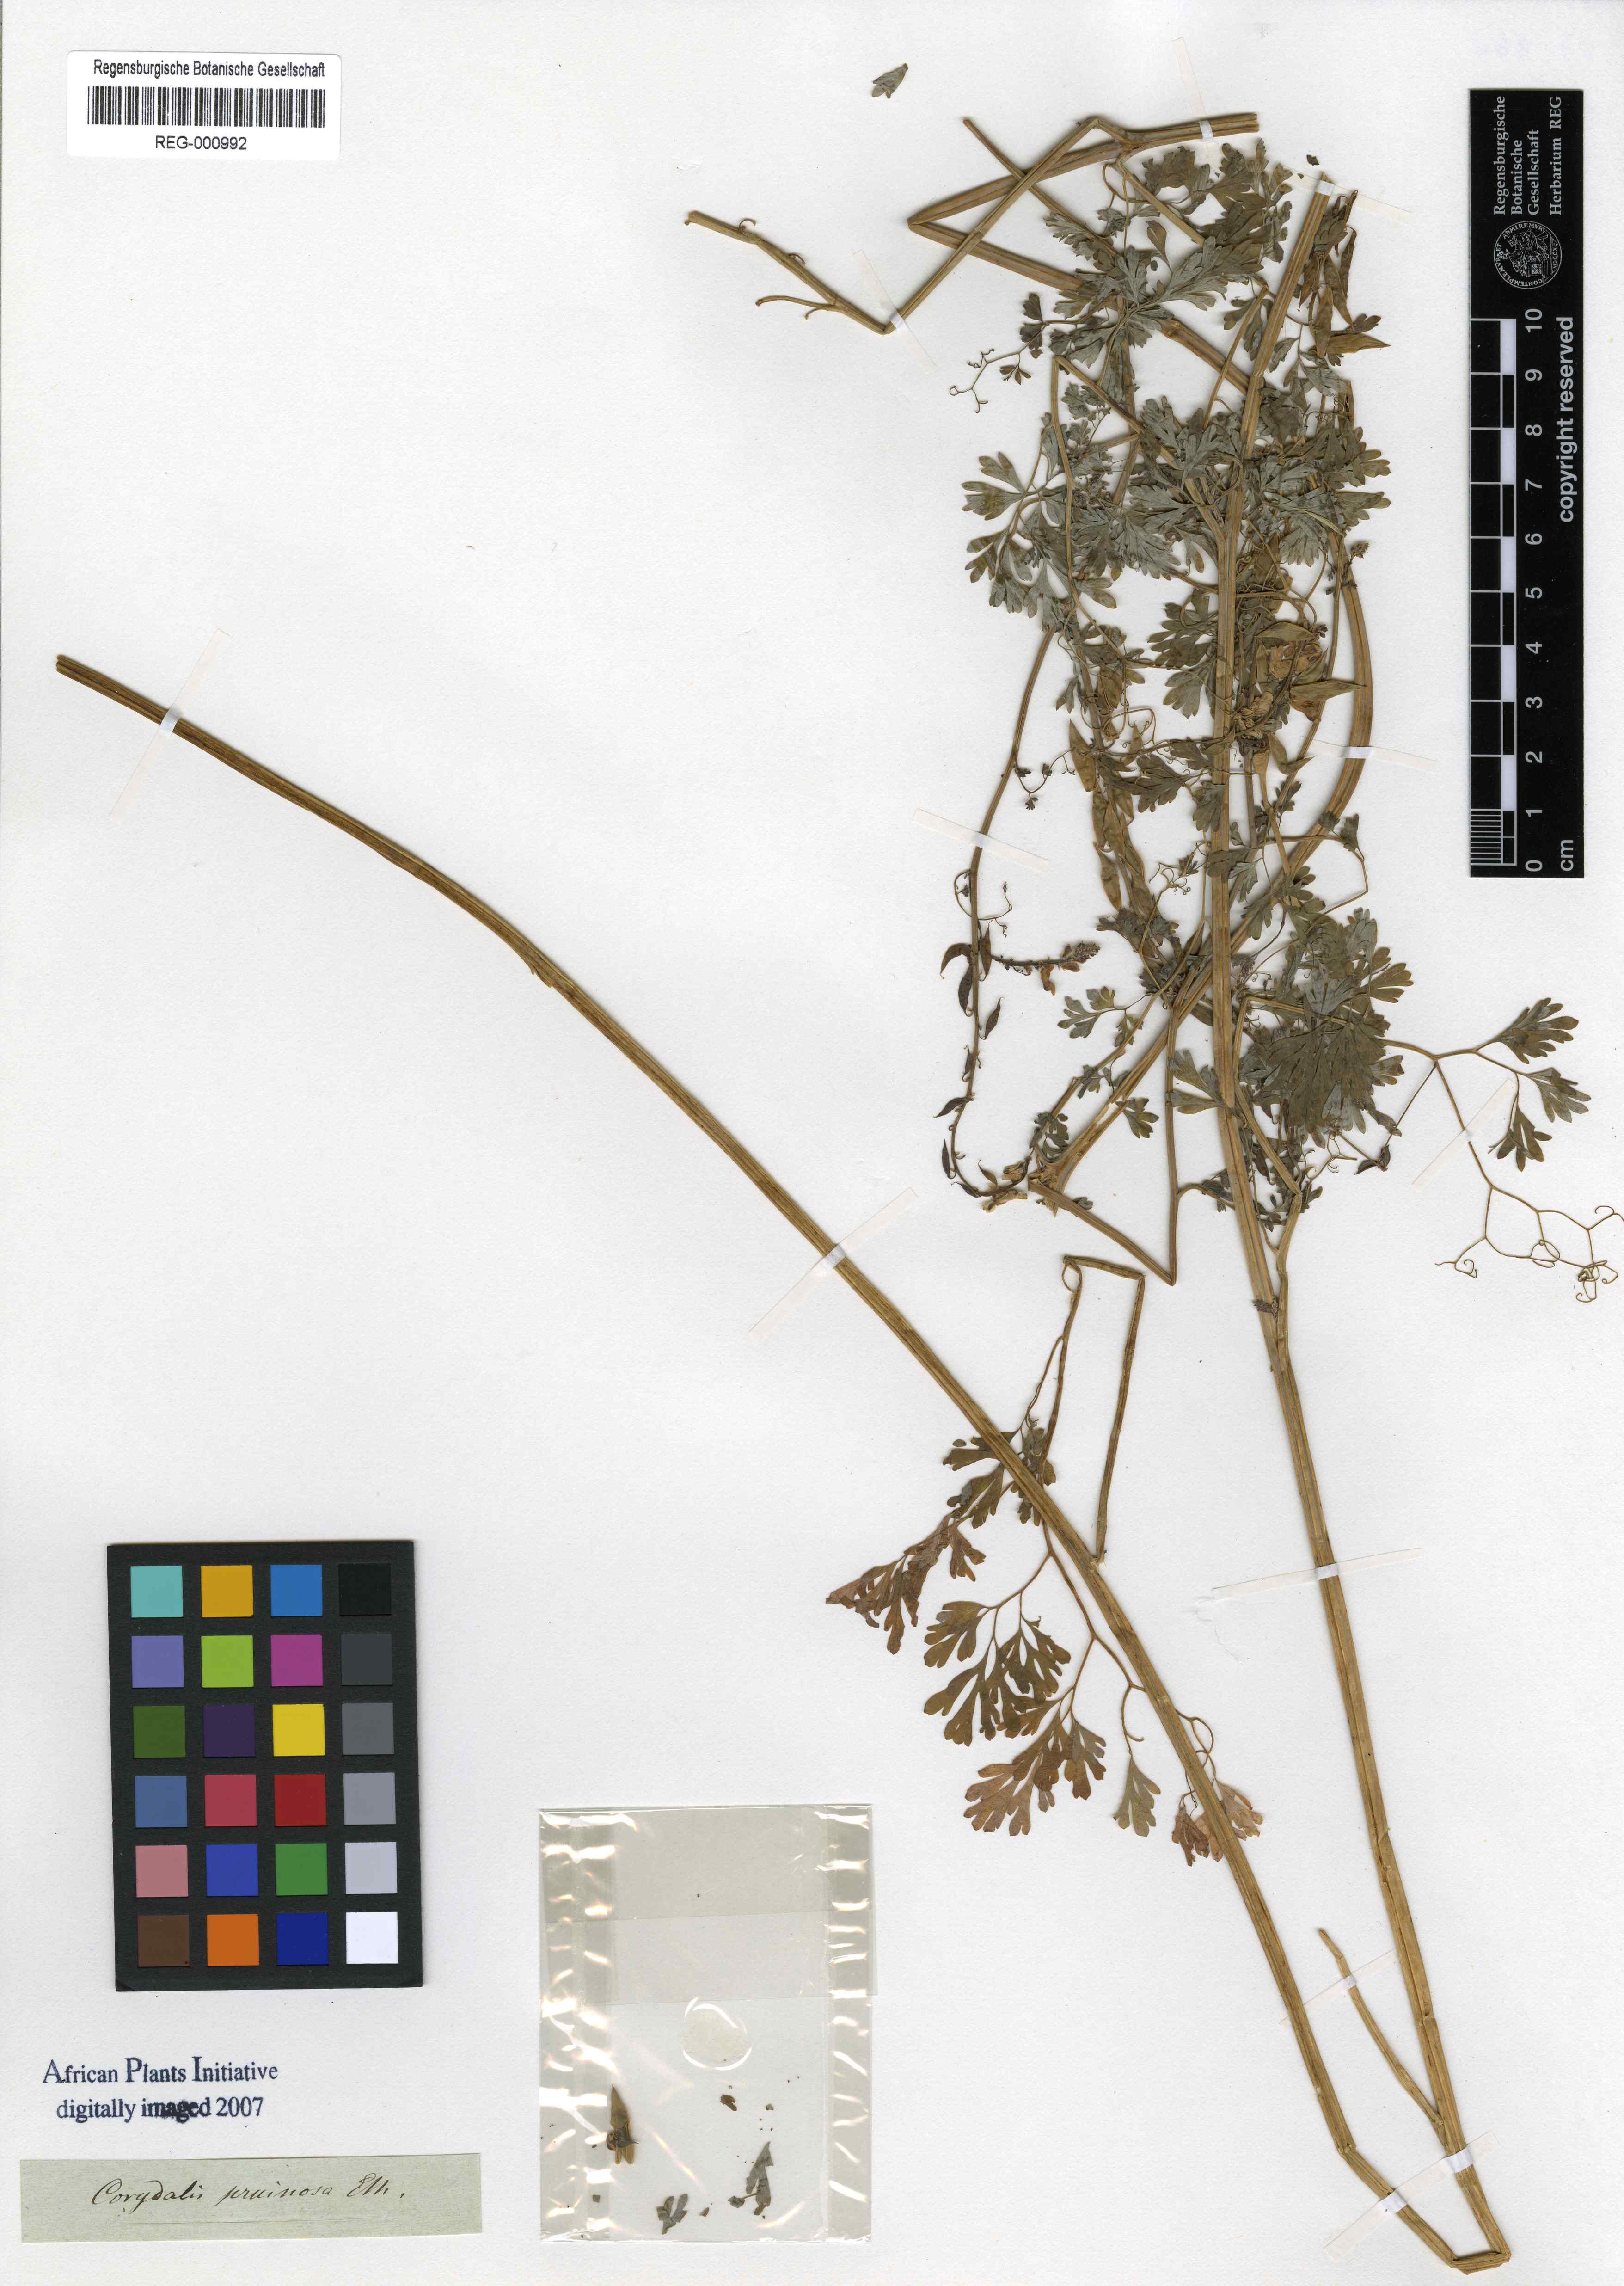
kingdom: Plantae
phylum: Tracheophyta
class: Magnoliopsida
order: Ranunculales
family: Papaveraceae
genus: Corydalis
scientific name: Corydalis pruinosa
